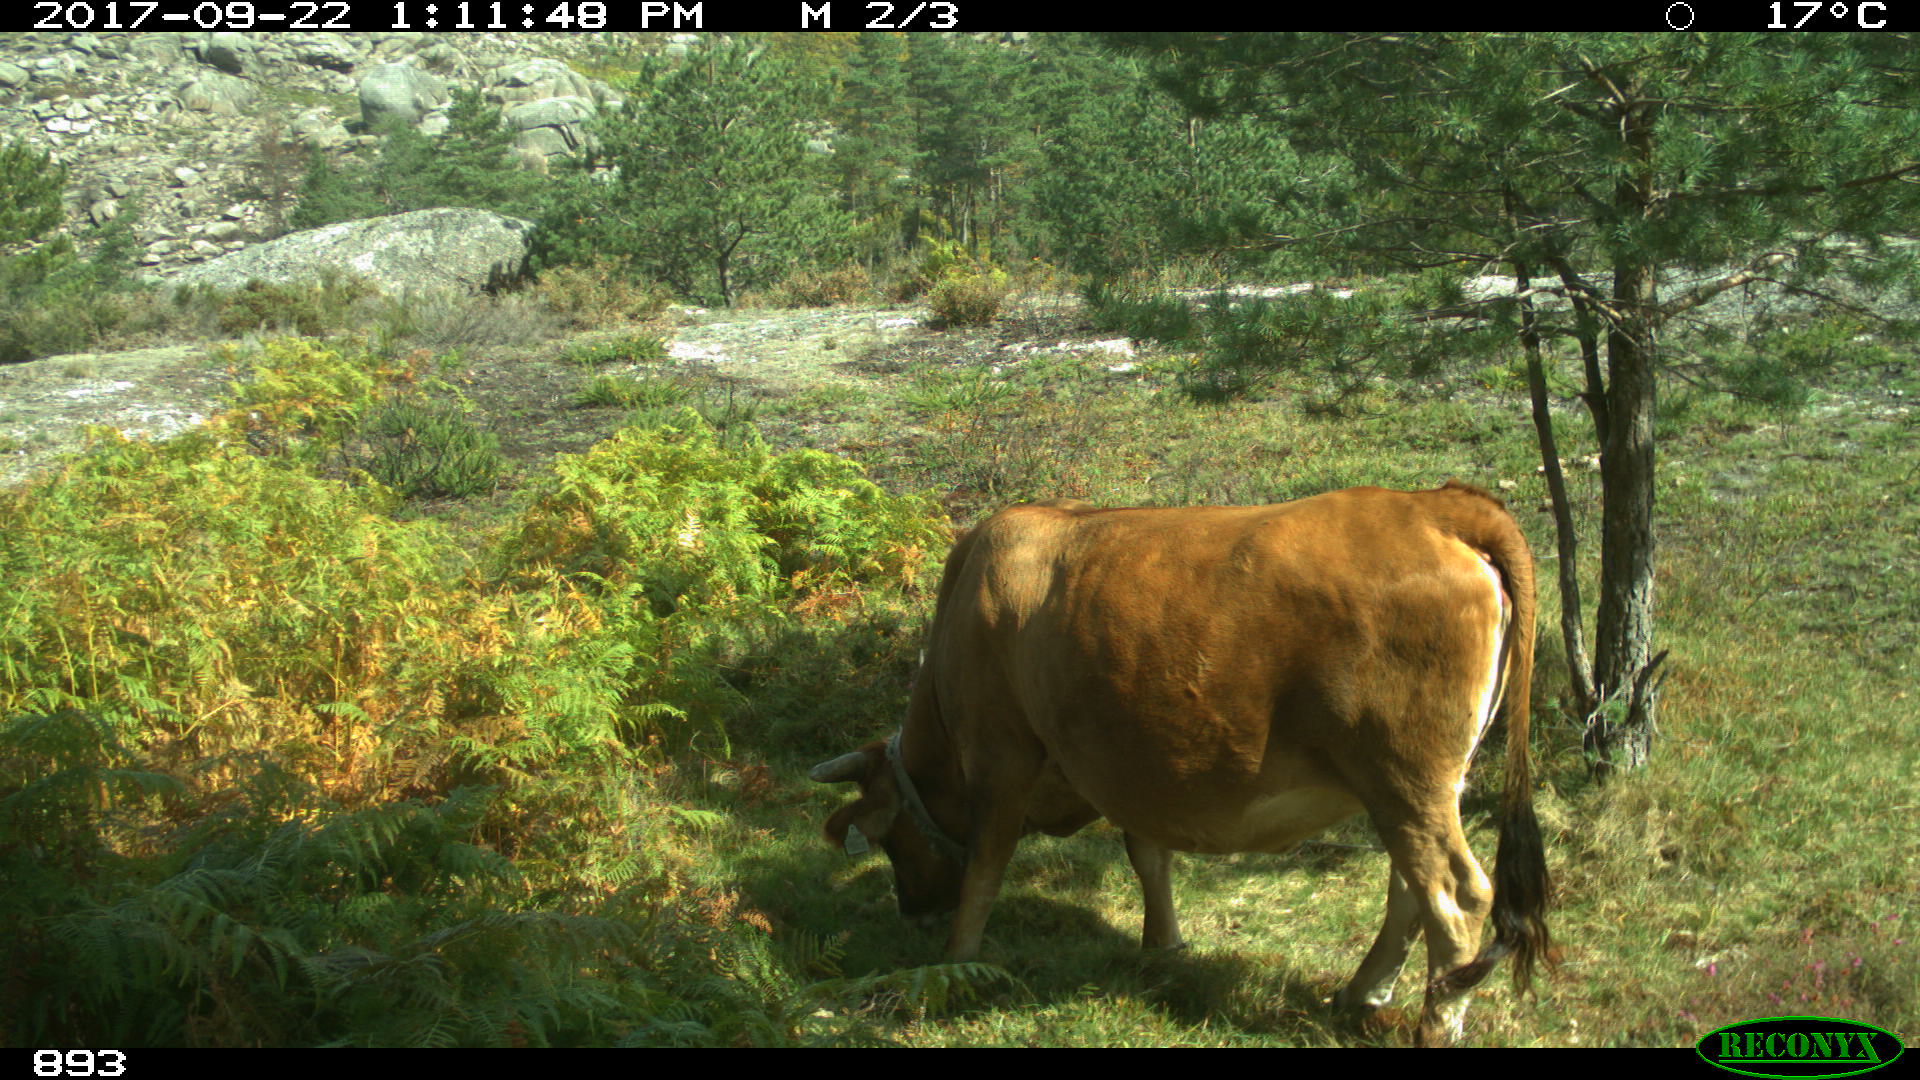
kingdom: Animalia
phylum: Chordata
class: Mammalia
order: Artiodactyla
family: Bovidae
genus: Bos
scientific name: Bos taurus
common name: Domesticated cattle
